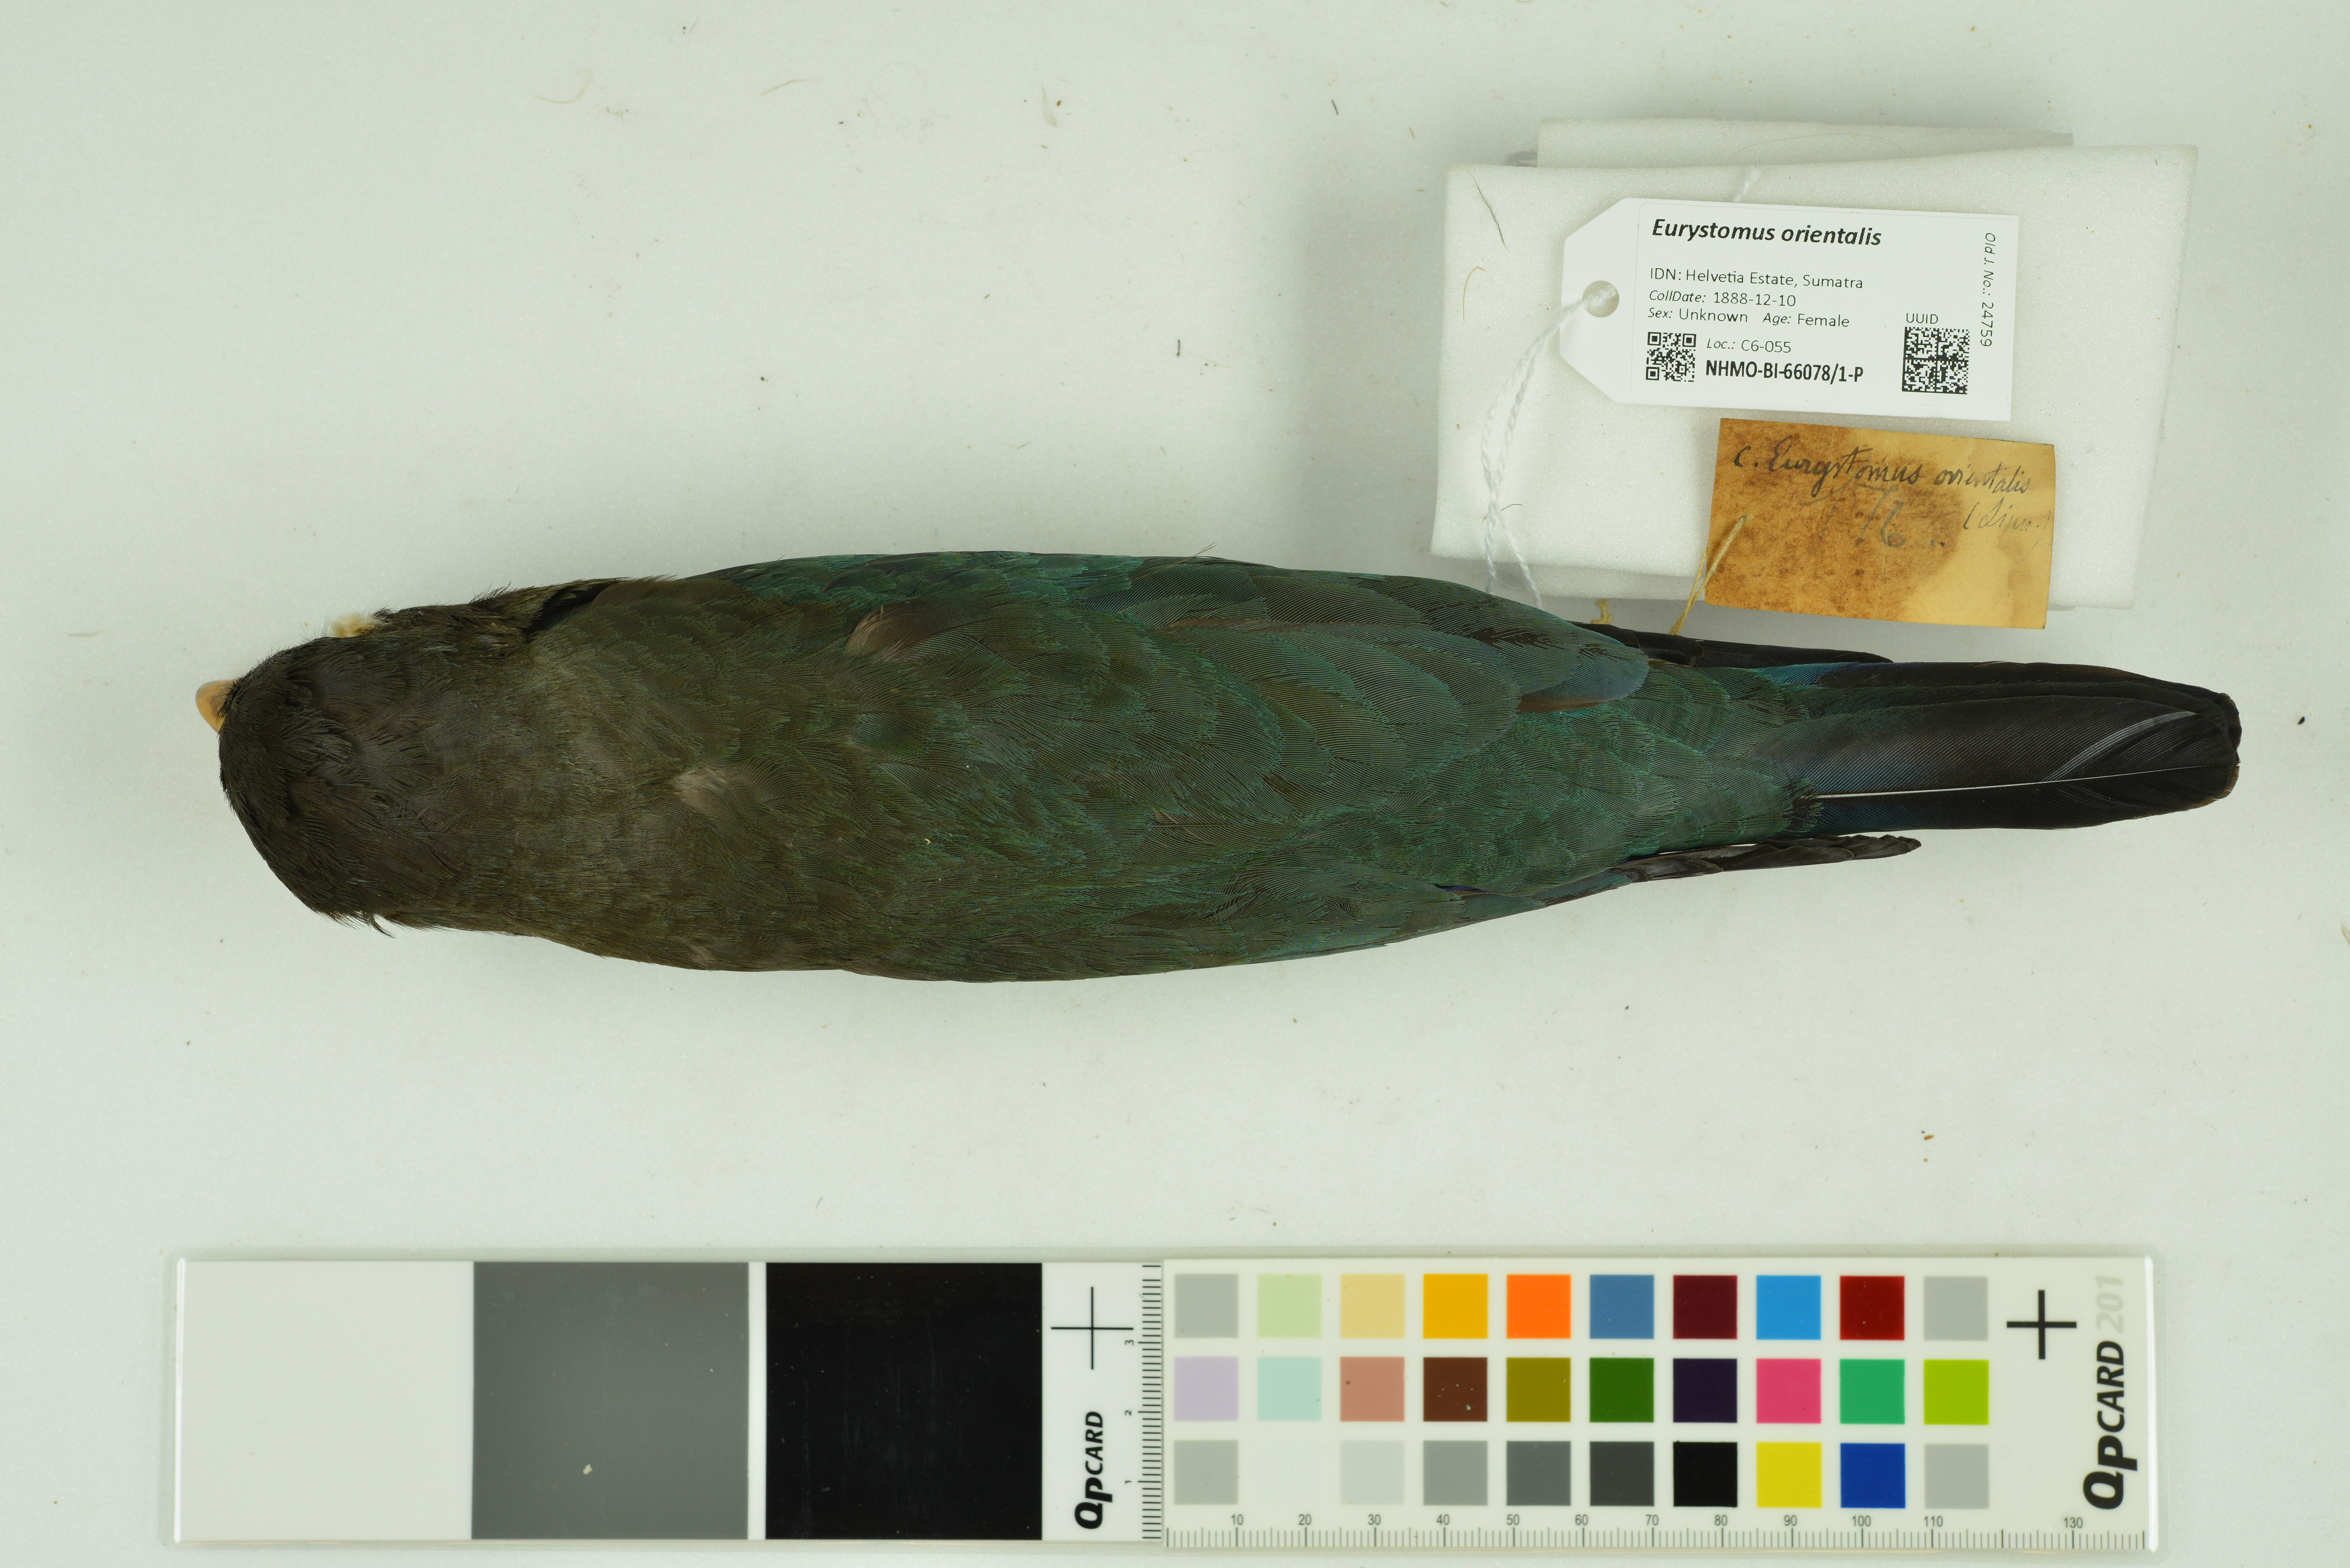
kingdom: Animalia
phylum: Chordata
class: Aves
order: Coraciiformes
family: Coraciidae
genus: Eurystomus
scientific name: Eurystomus orientalis
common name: Oriental dollarbird
